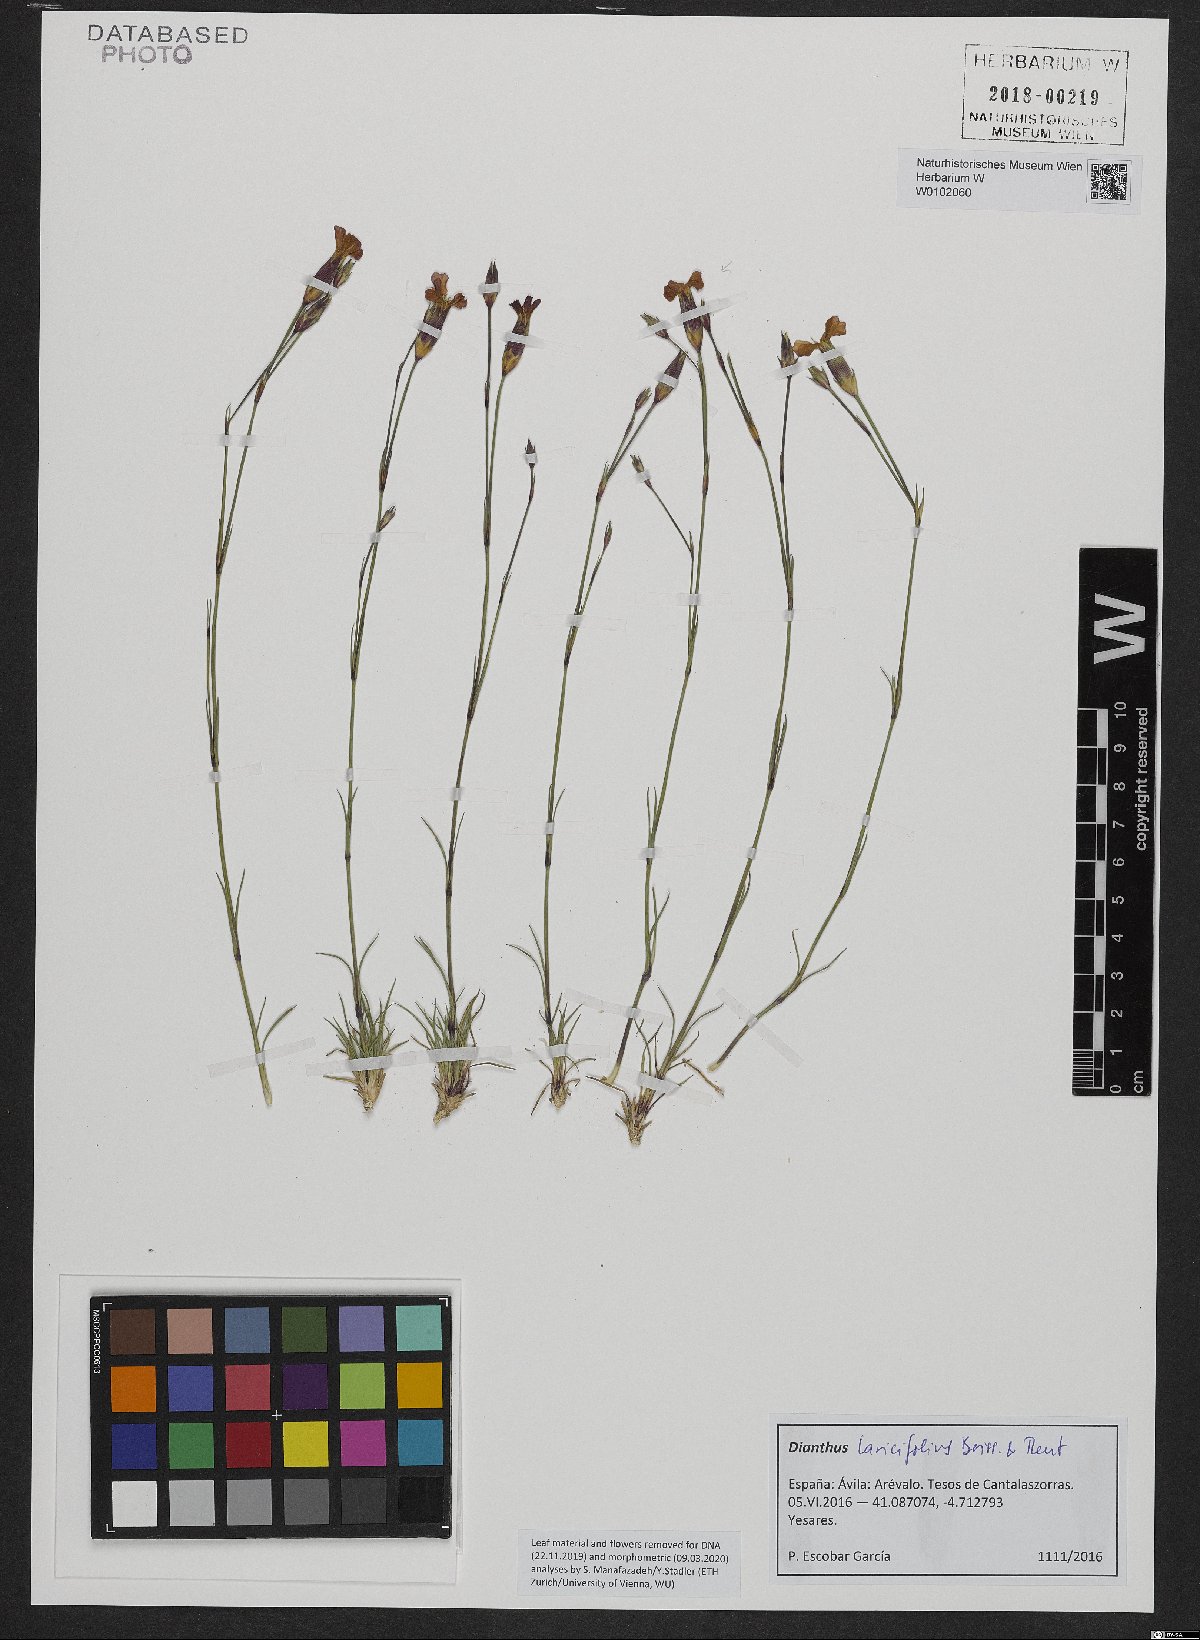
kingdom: Plantae
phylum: Tracheophyta
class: Magnoliopsida
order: Caryophyllales
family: Caryophyllaceae
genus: Dianthus
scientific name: Dianthus laricifolius
